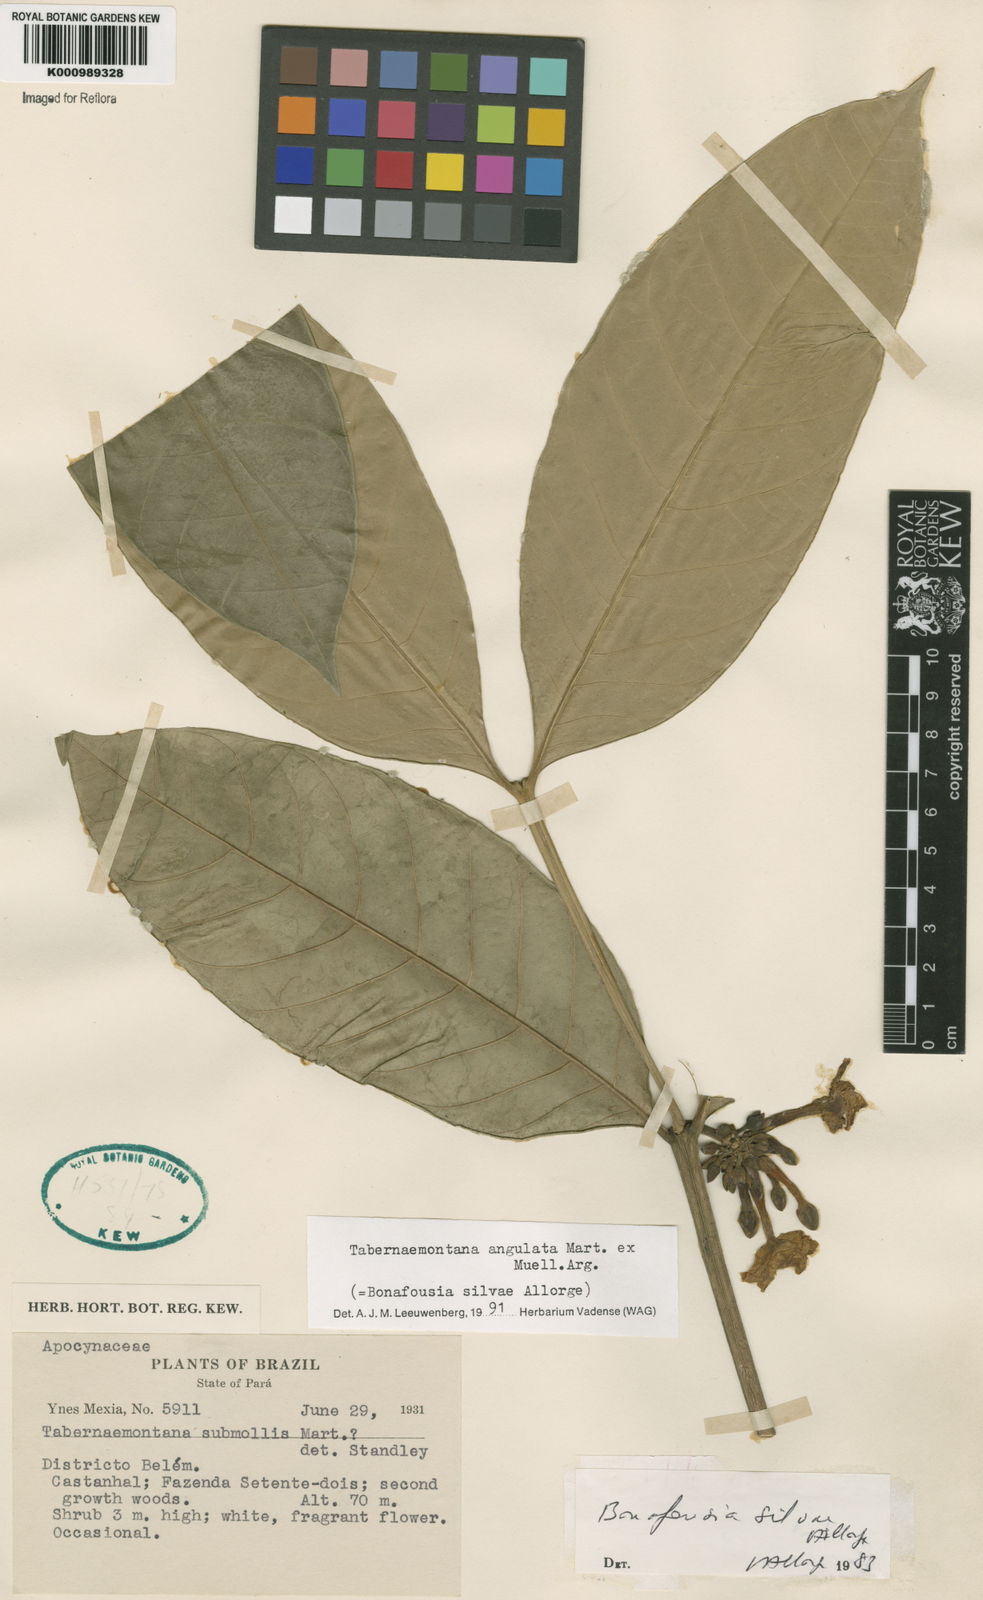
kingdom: Plantae
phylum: Tracheophyta
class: Magnoliopsida
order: Gentianales
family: Apocynaceae
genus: Tabernaemontana
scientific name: Tabernaemontana
